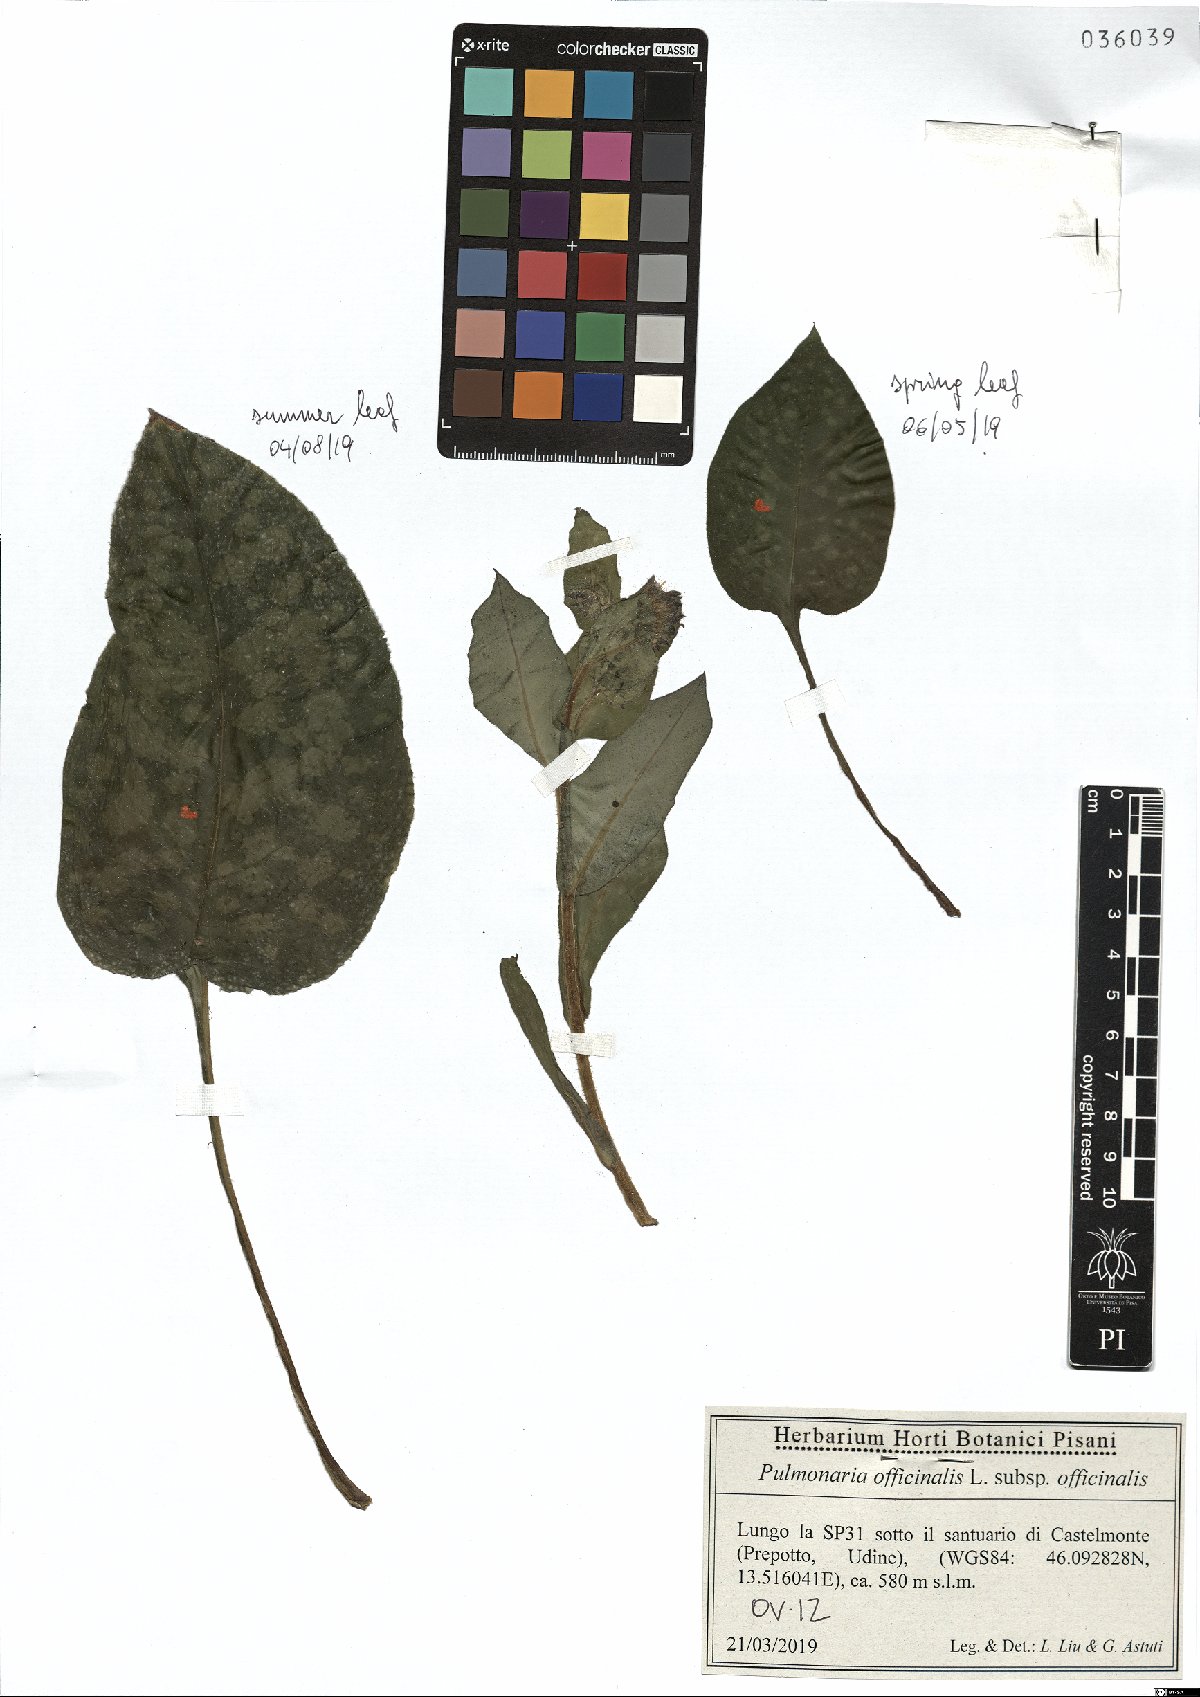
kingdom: Plantae
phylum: Tracheophyta
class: Magnoliopsida
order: Boraginales
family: Boraginaceae
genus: Pulmonaria
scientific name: Pulmonaria officinalis
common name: Lungwort
